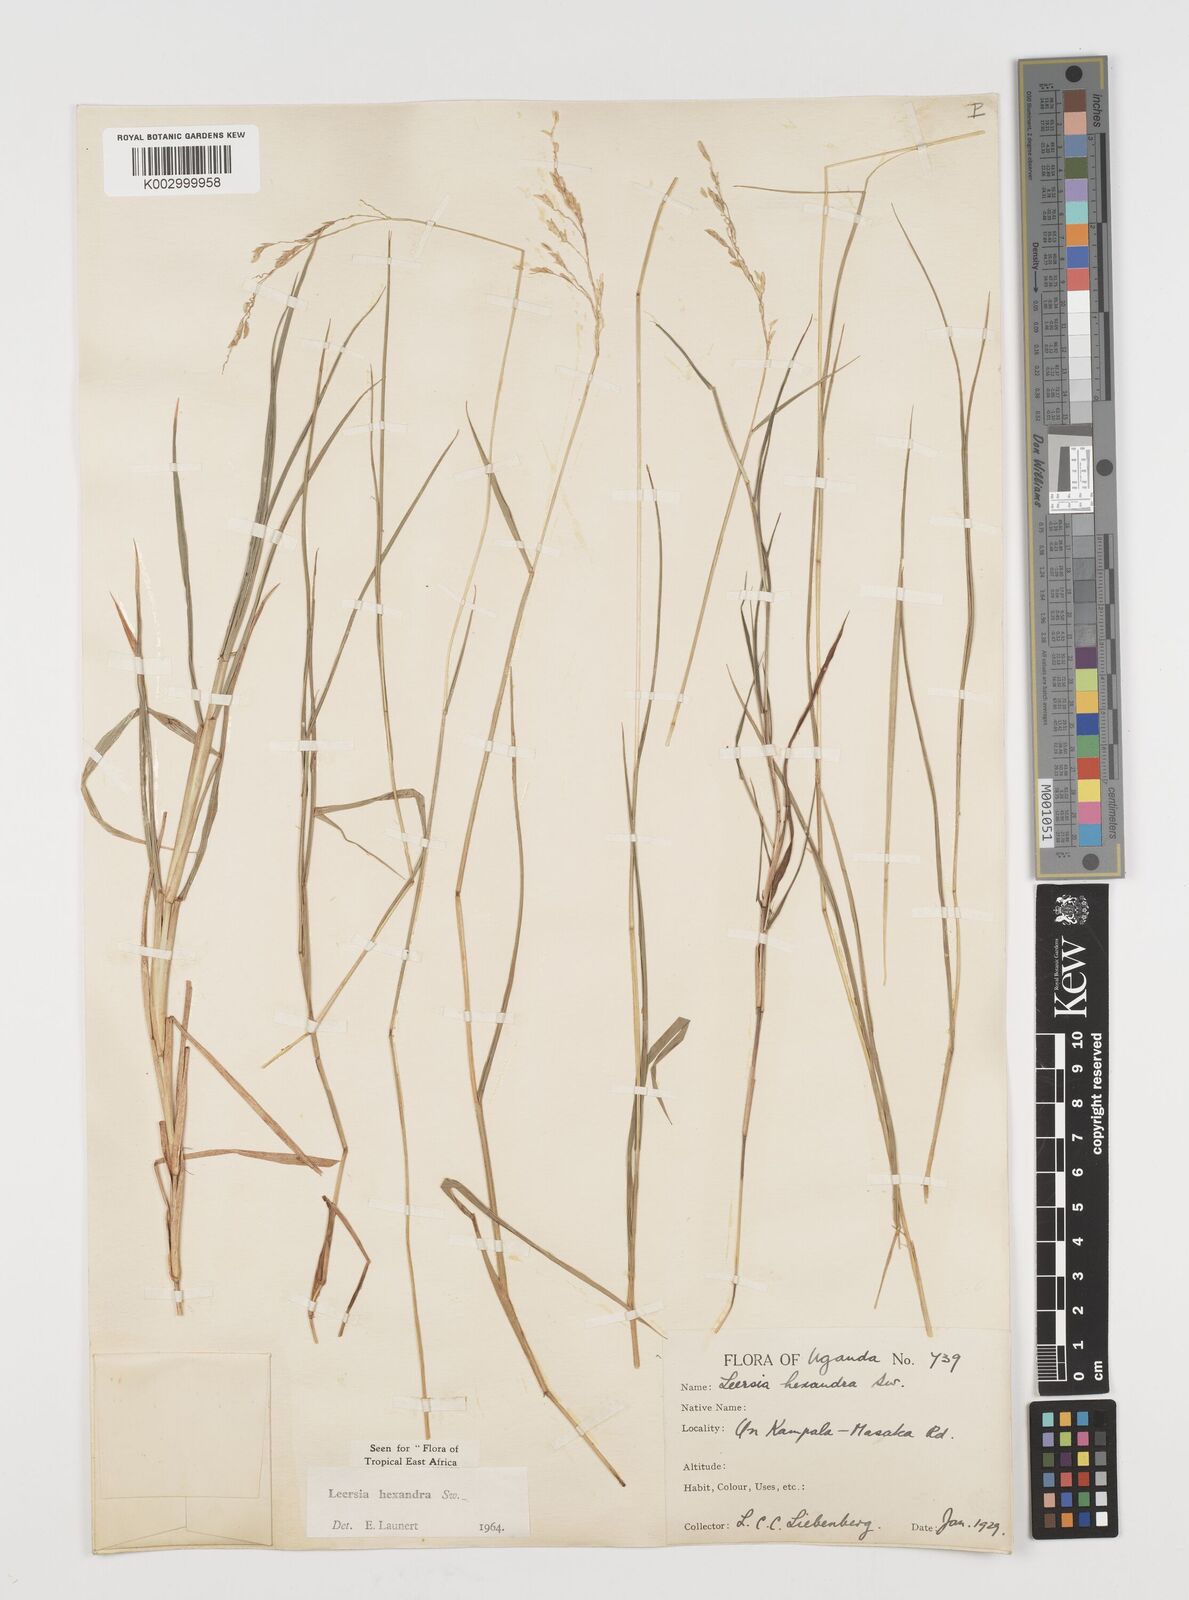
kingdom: Plantae
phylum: Tracheophyta
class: Liliopsida
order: Poales
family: Poaceae
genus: Leersia
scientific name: Leersia hexandra
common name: Southern cut grass
